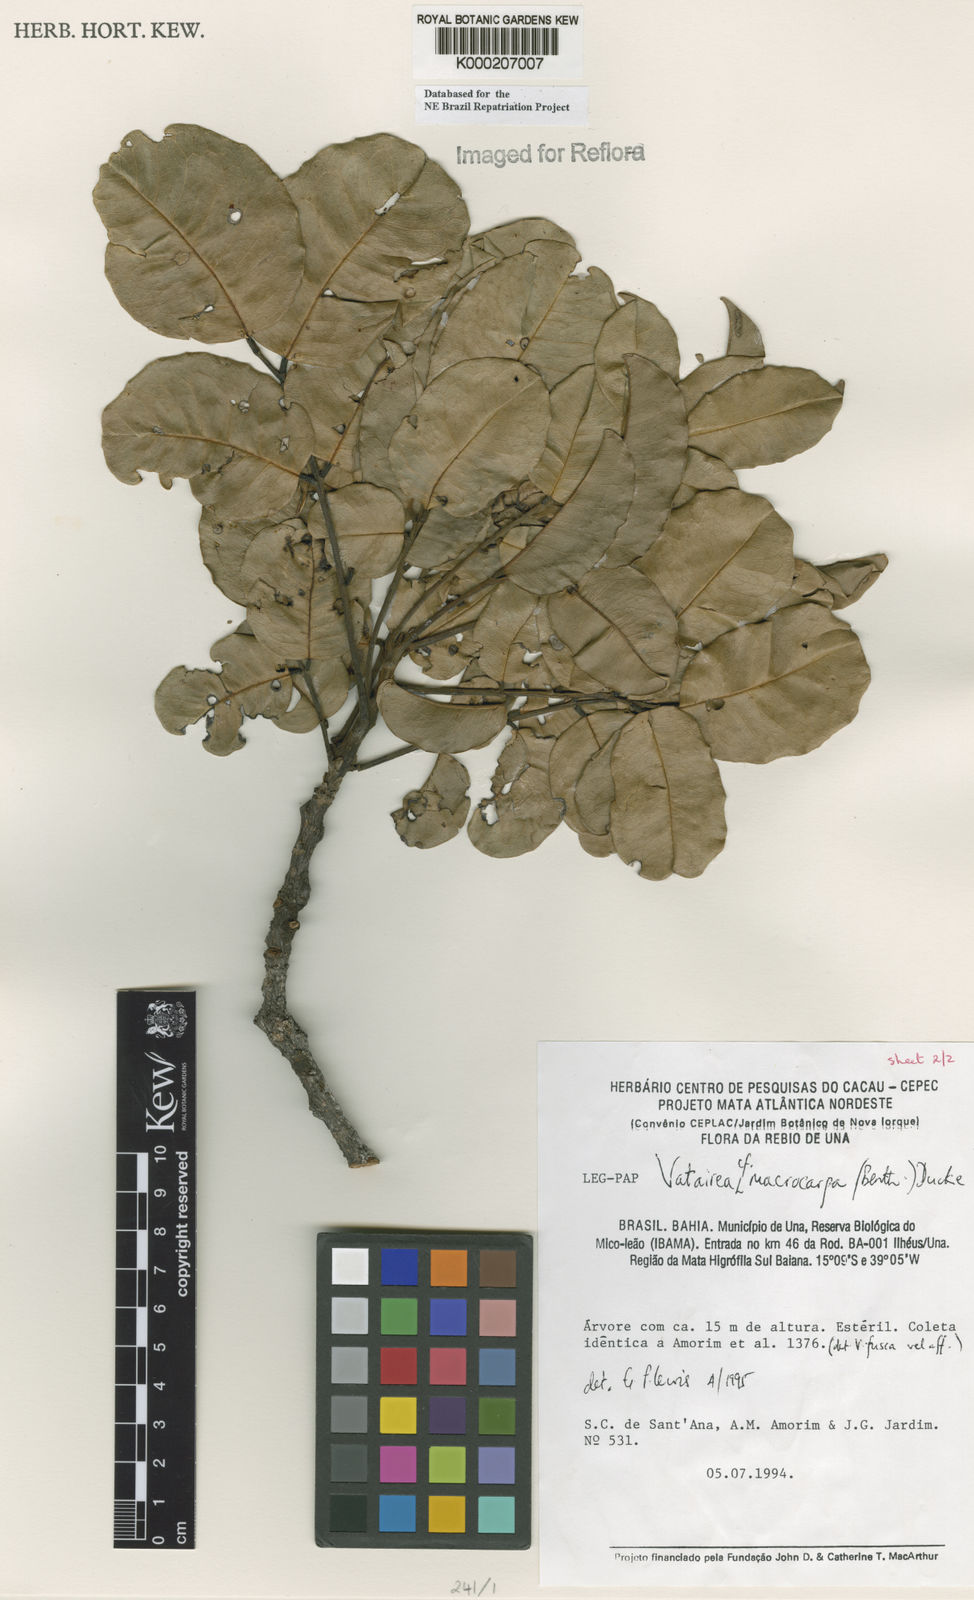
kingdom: Plantae
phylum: Tracheophyta
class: Magnoliopsida
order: Fabales
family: Fabaceae
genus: Vatairea
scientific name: Vatairea
